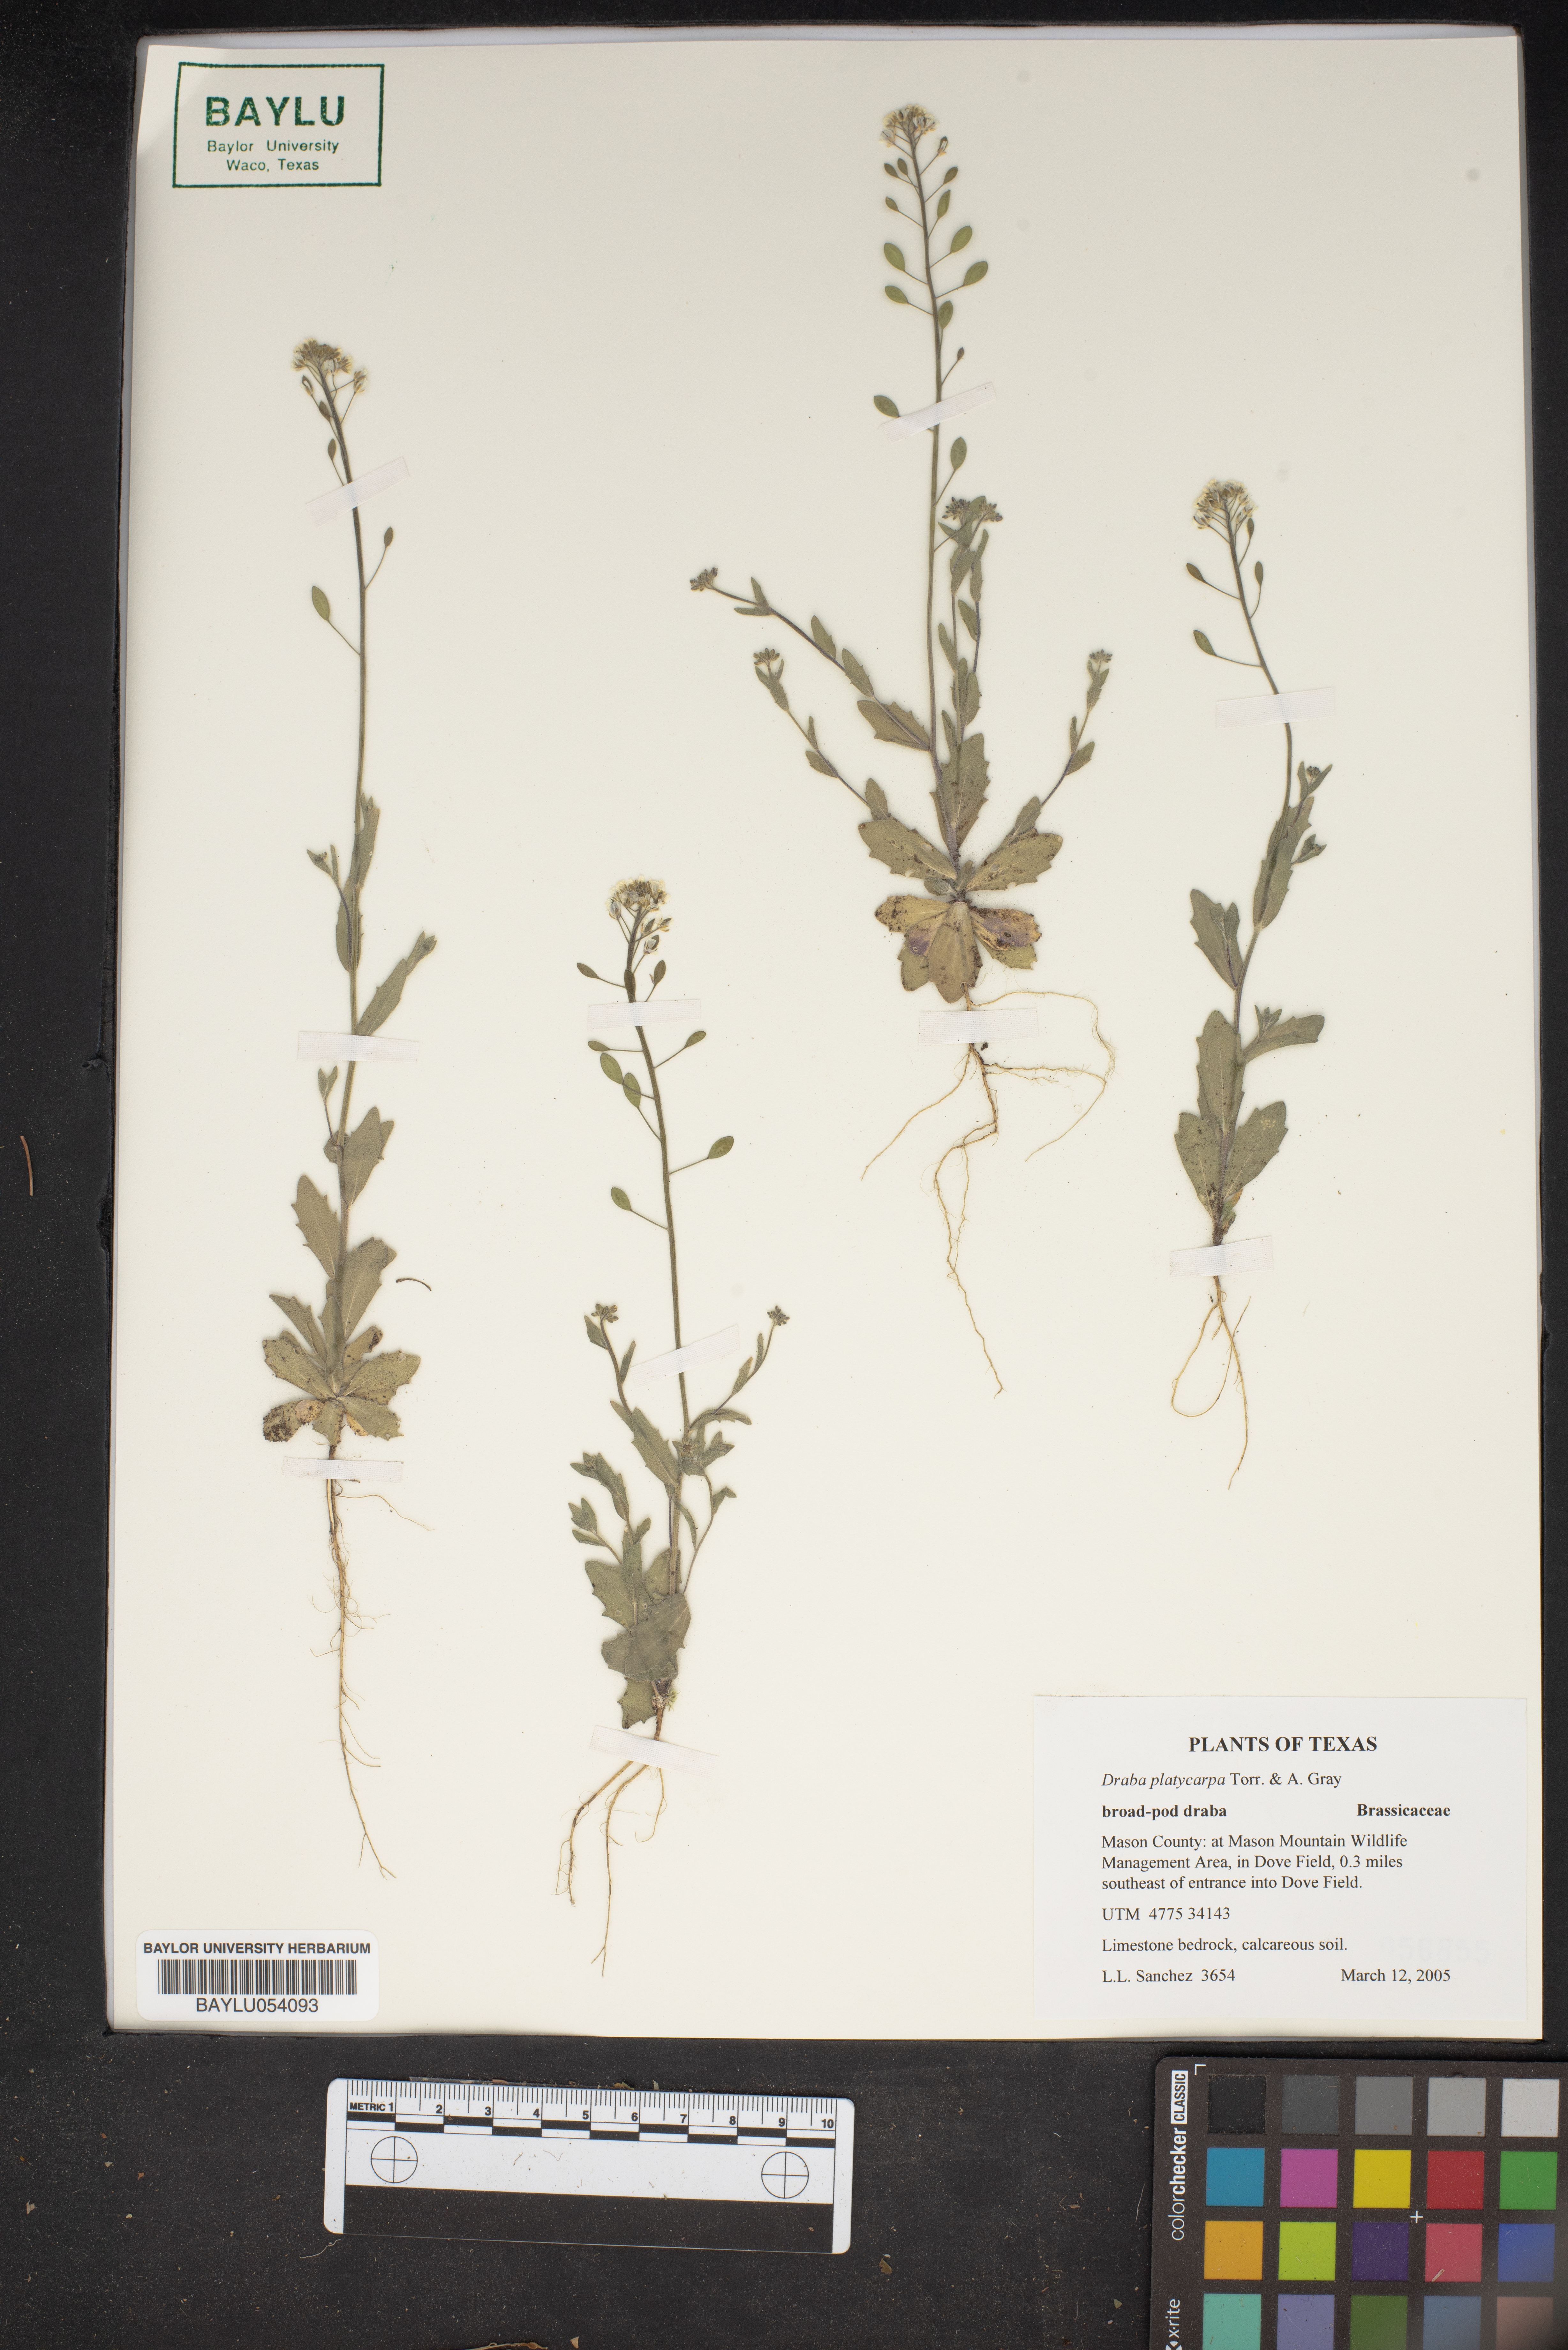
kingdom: Plantae
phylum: Tracheophyta
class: Magnoliopsida
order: Brassicales
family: Brassicaceae
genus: Tomostima
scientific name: Tomostima platycarpa
